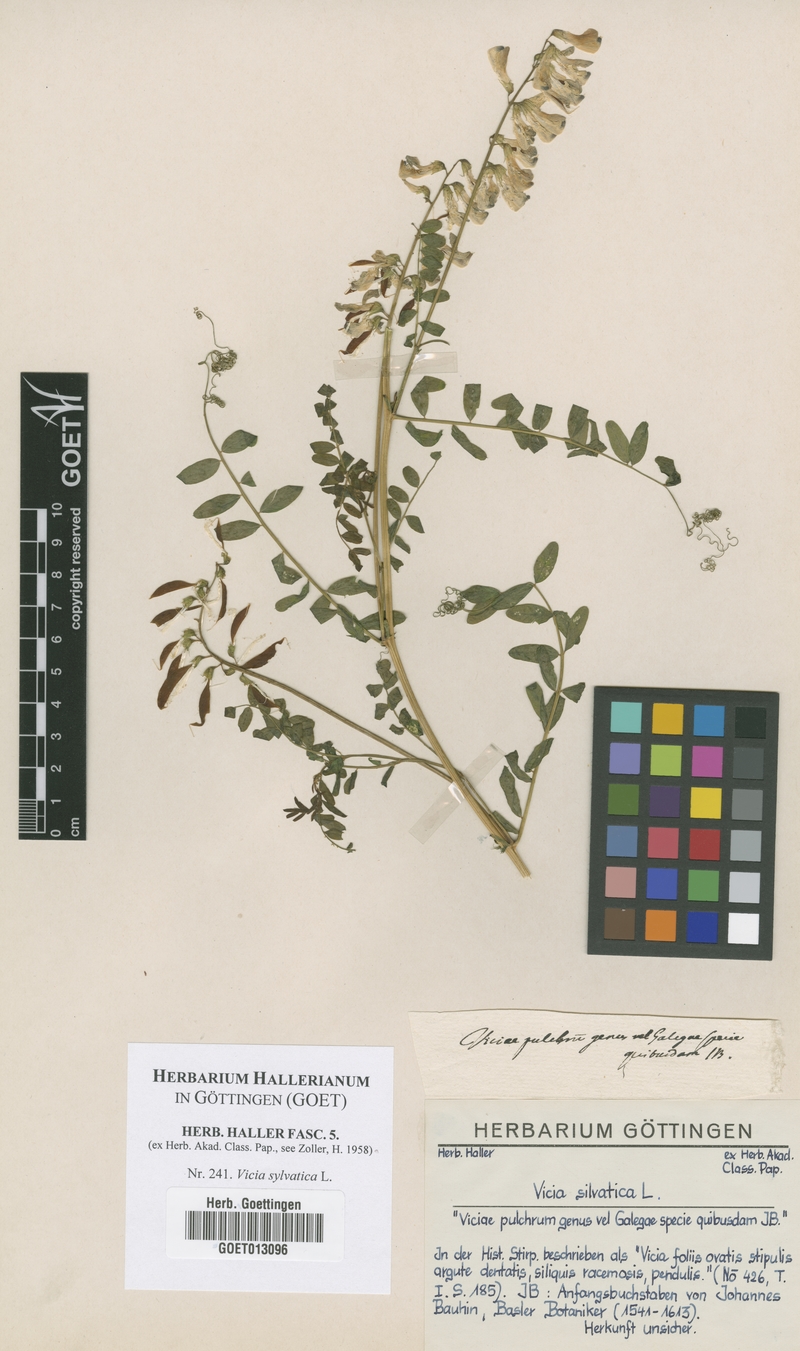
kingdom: Plantae
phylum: Tracheophyta
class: Magnoliopsida
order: Fabales
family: Fabaceae
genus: Vicia
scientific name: Vicia sylvatica
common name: Wood vetch
